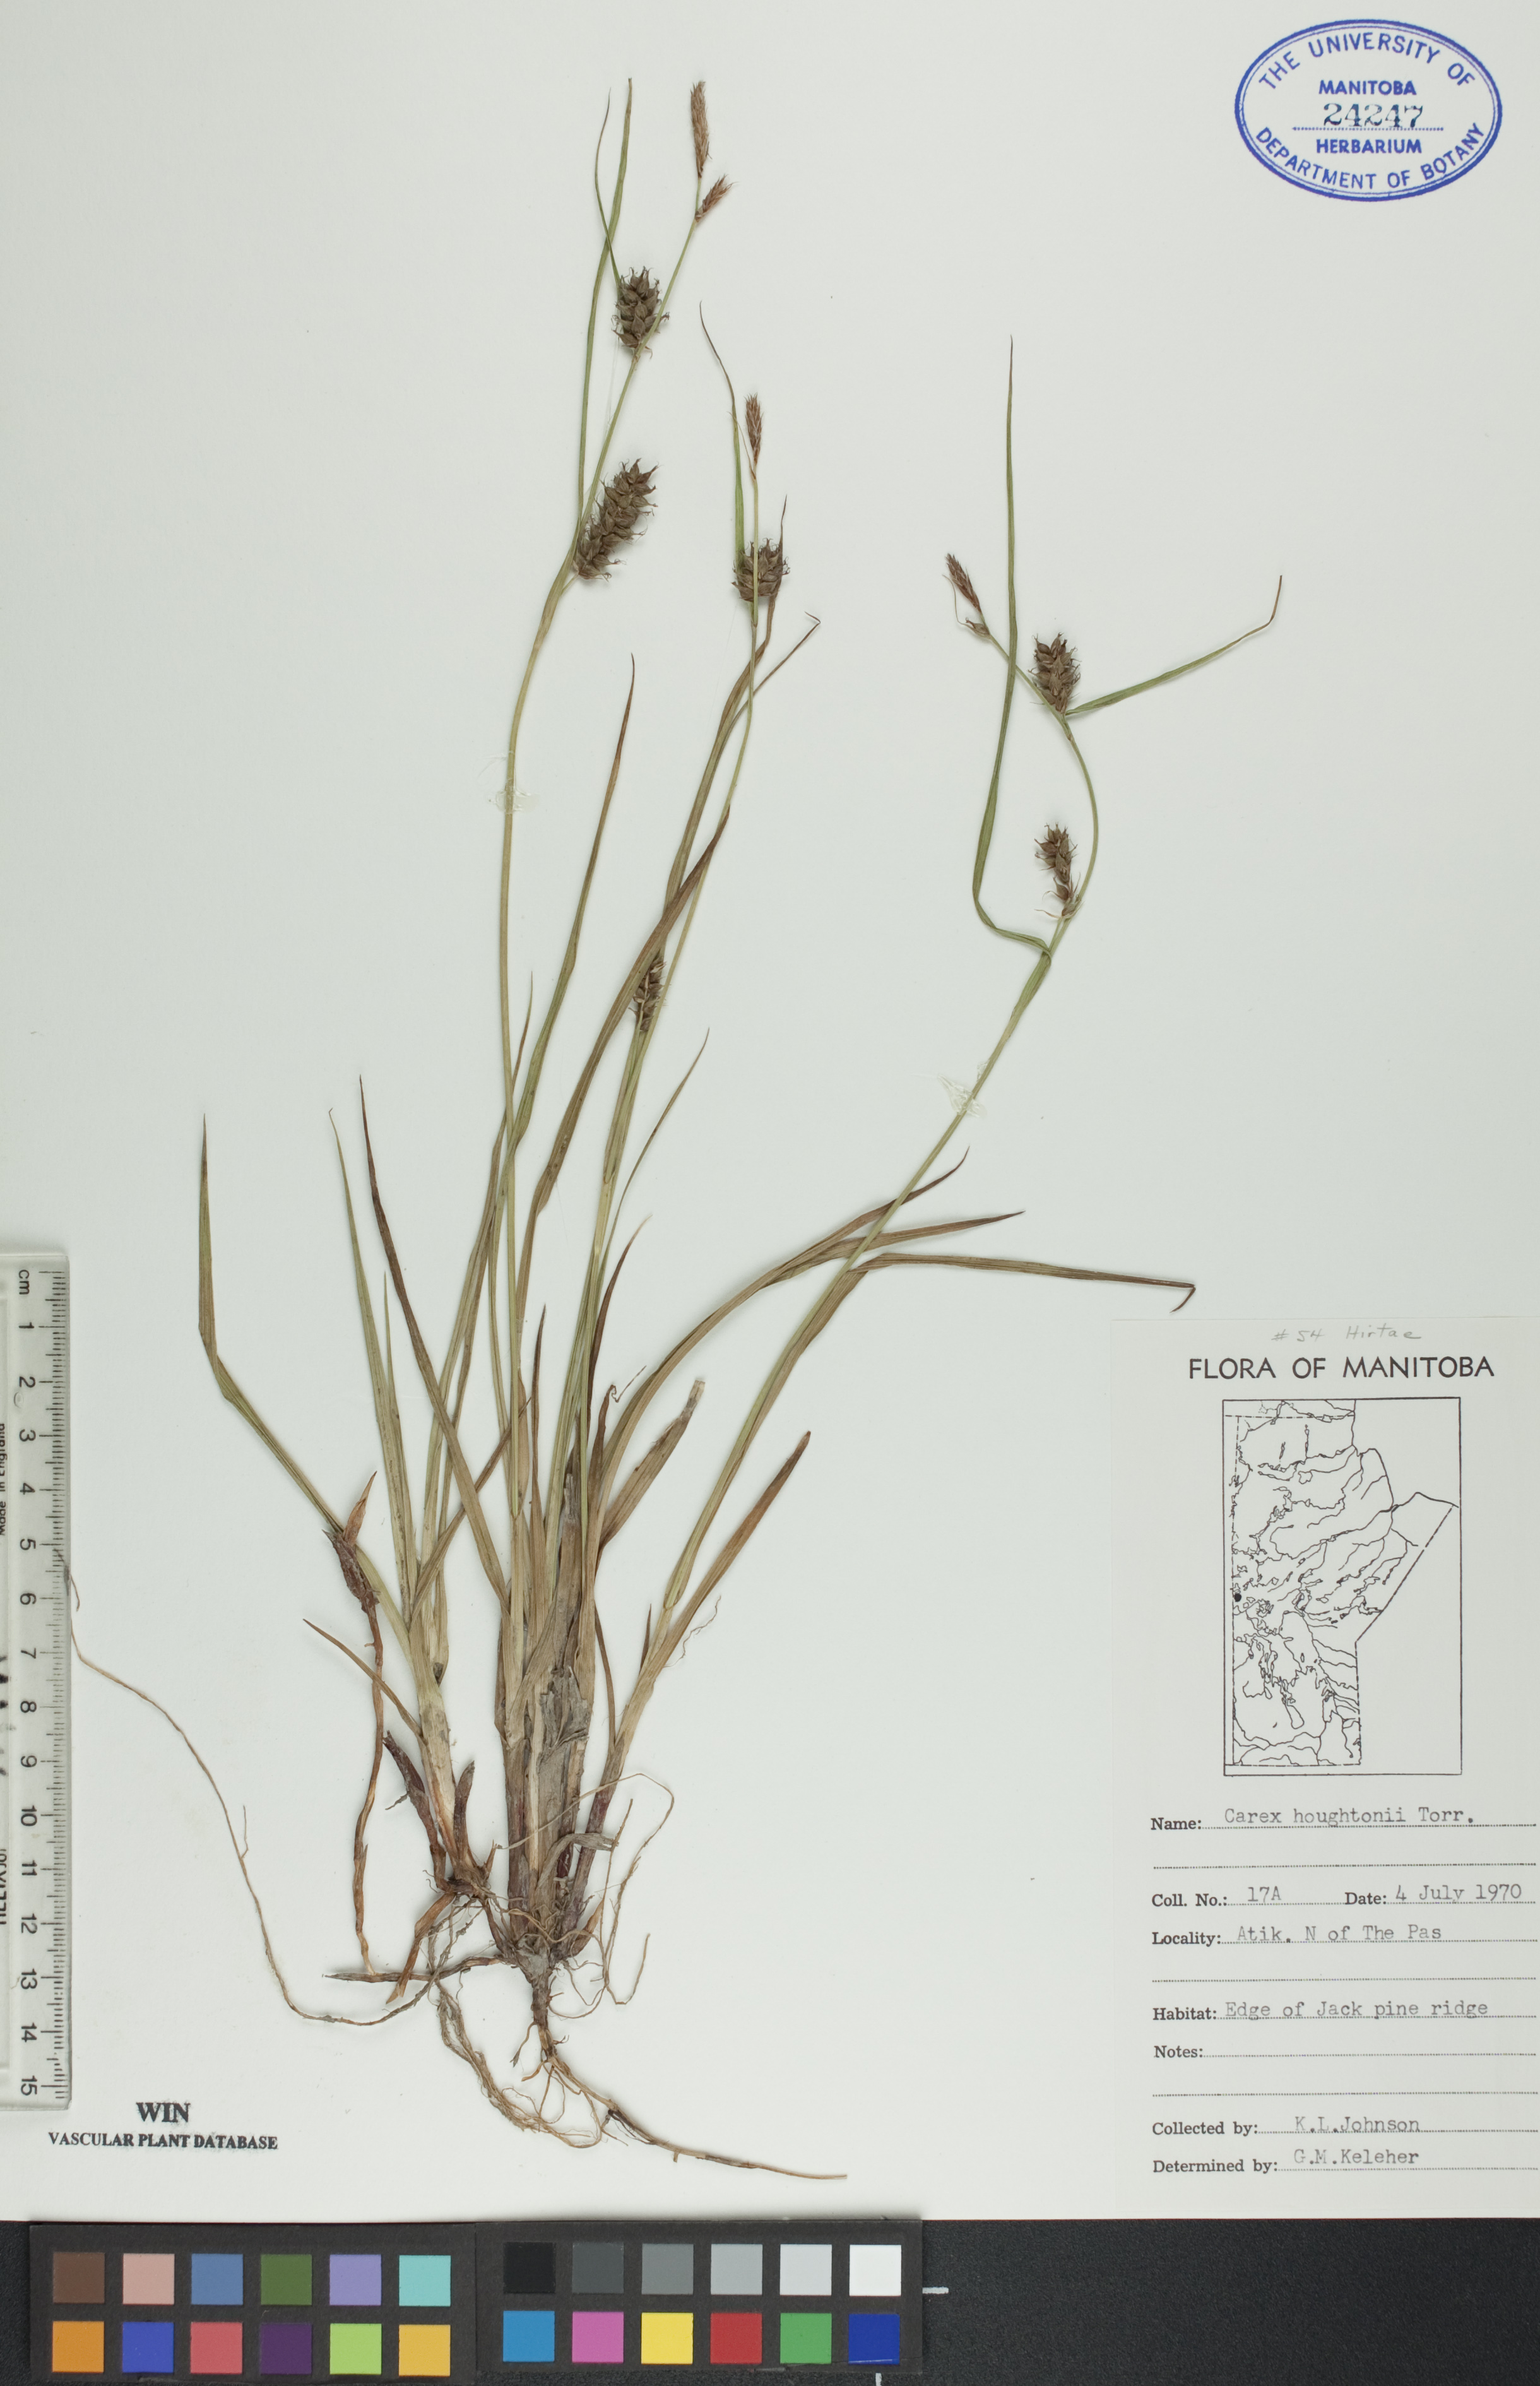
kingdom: Plantae
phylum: Tracheophyta
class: Liliopsida
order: Poales
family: Cyperaceae
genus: Carex
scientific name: Carex houghtoniana
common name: Houghton's sedge
